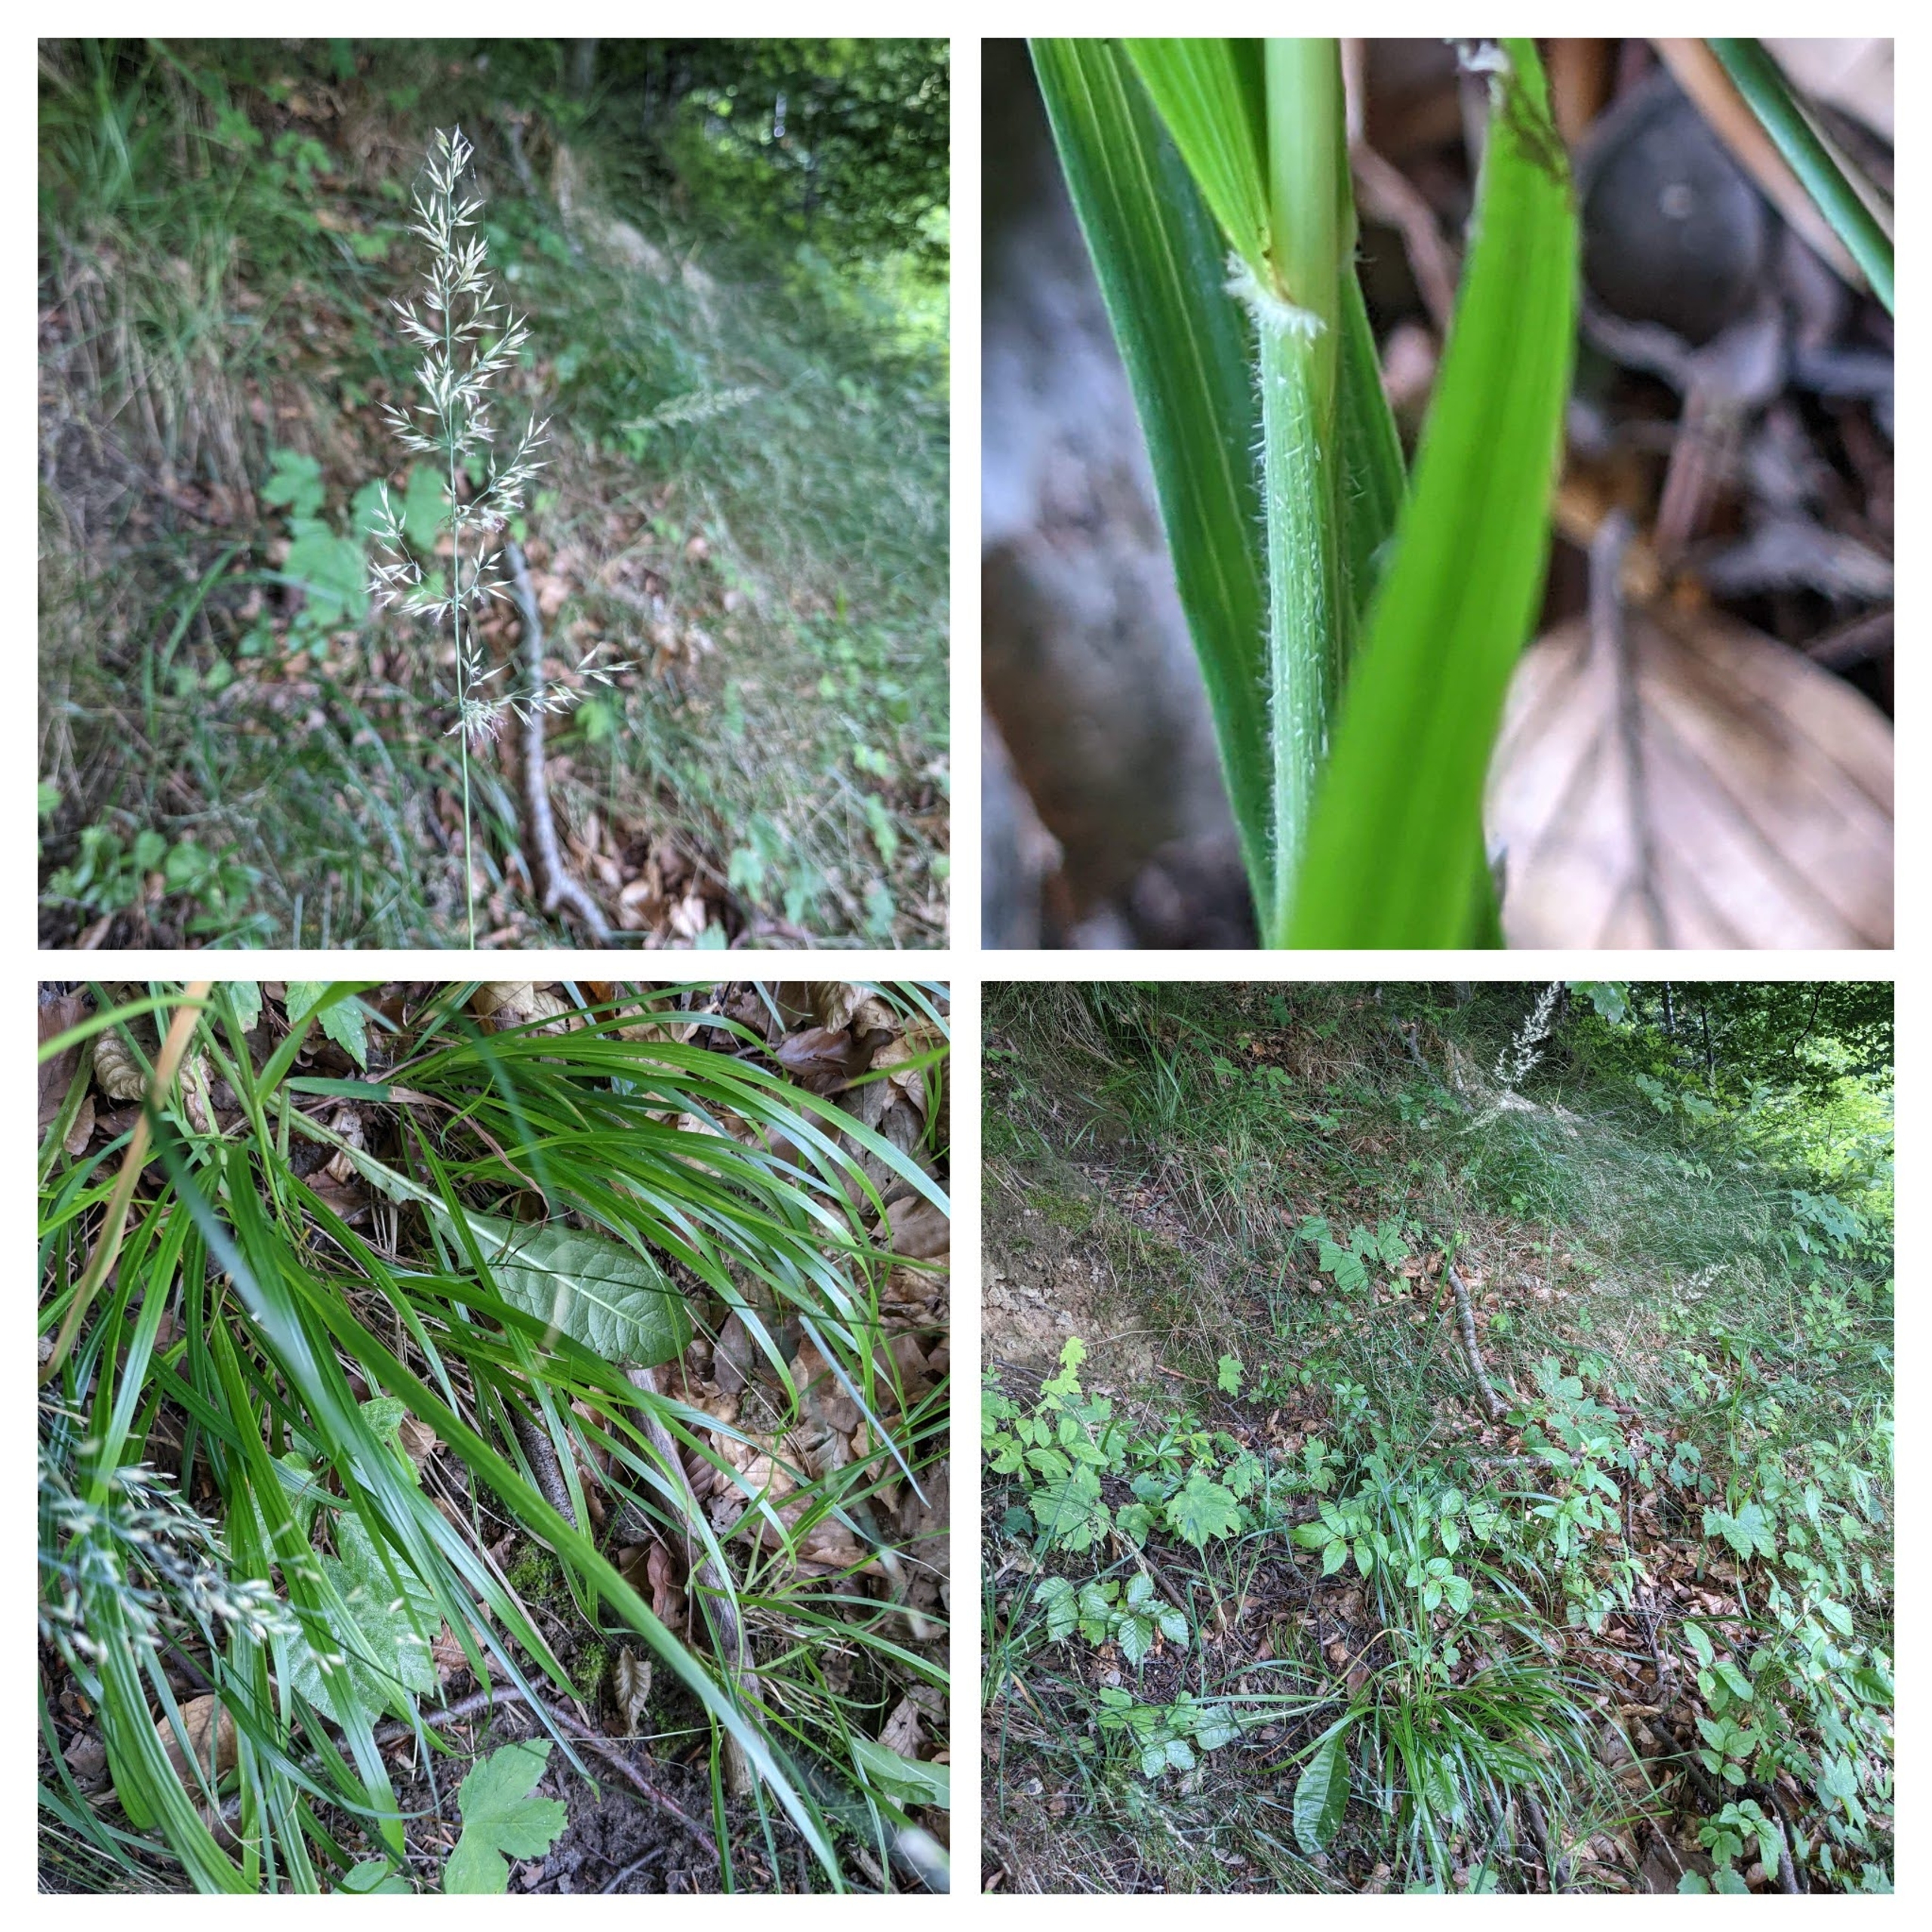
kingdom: Plantae
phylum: Tracheophyta
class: Liliopsida
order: Poales
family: Poaceae
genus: Calamagrostis
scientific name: Calamagrostis arundinacea
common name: Skov-rørhvene
